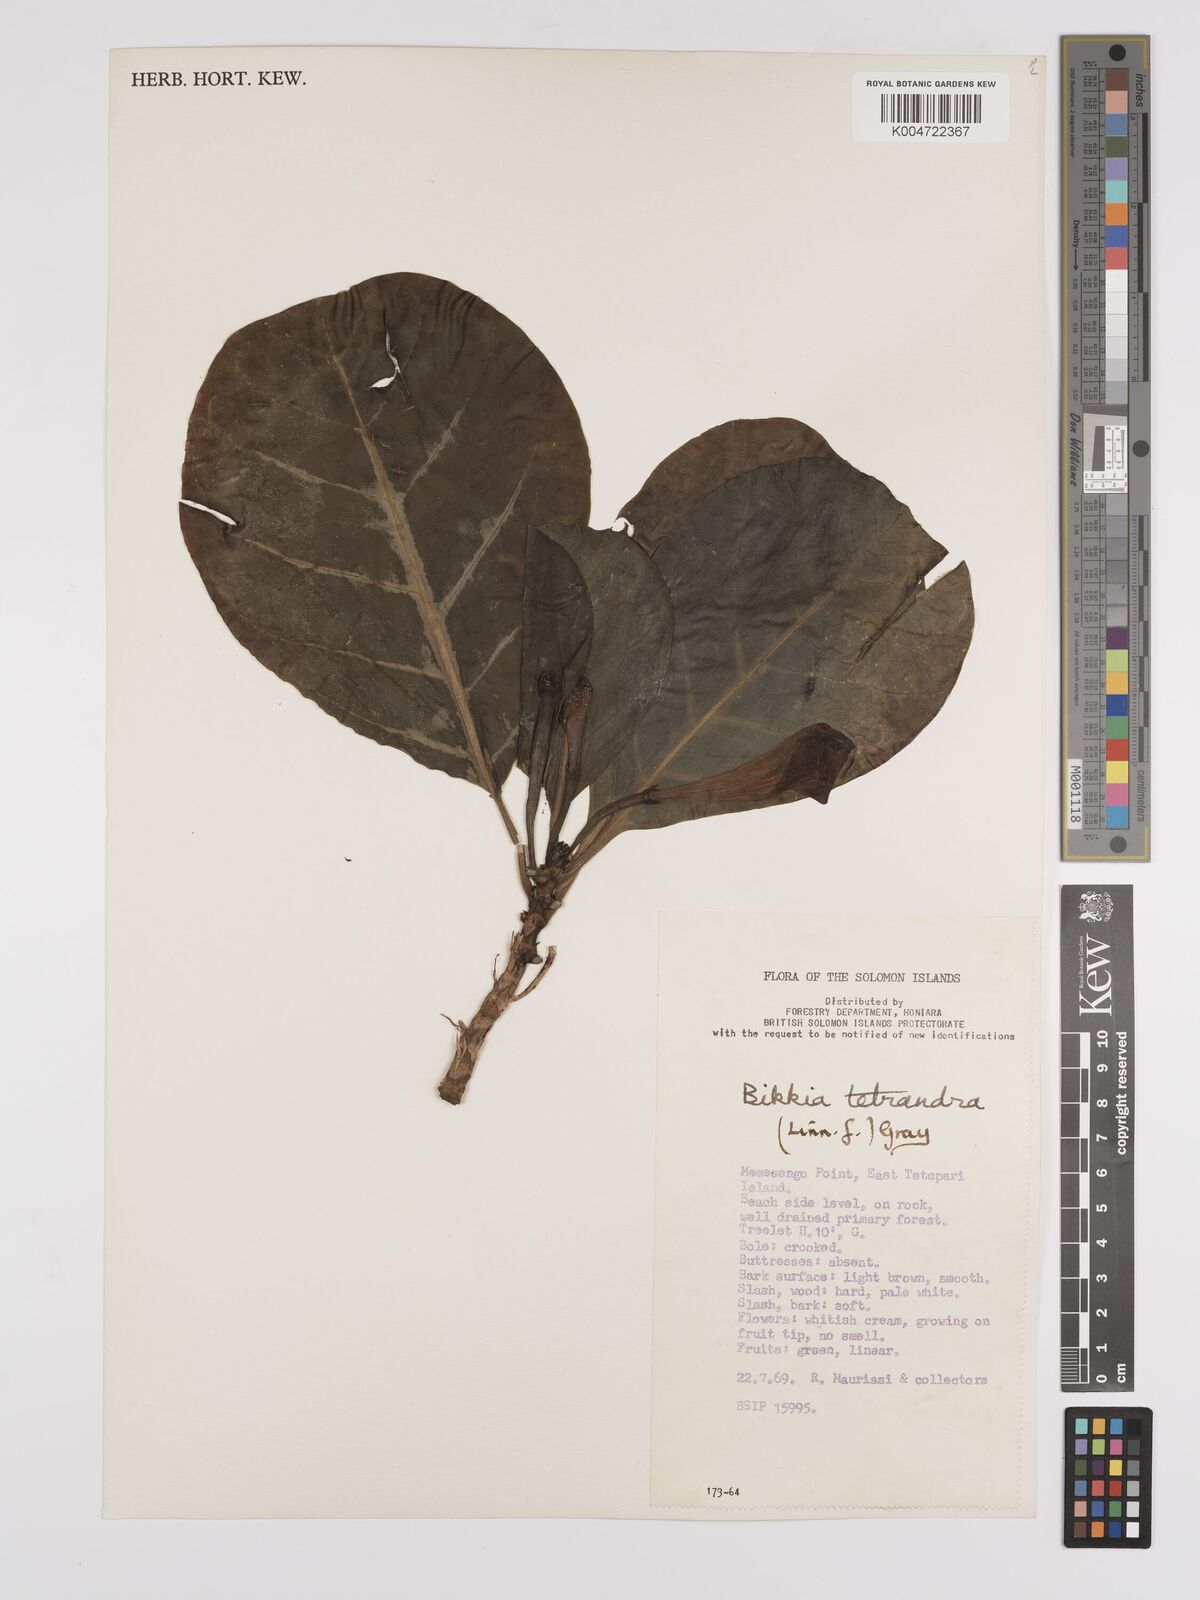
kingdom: Plantae
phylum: Tracheophyta
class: Magnoliopsida
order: Gentianales
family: Rubiaceae
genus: Bikkia
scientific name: Bikkia
